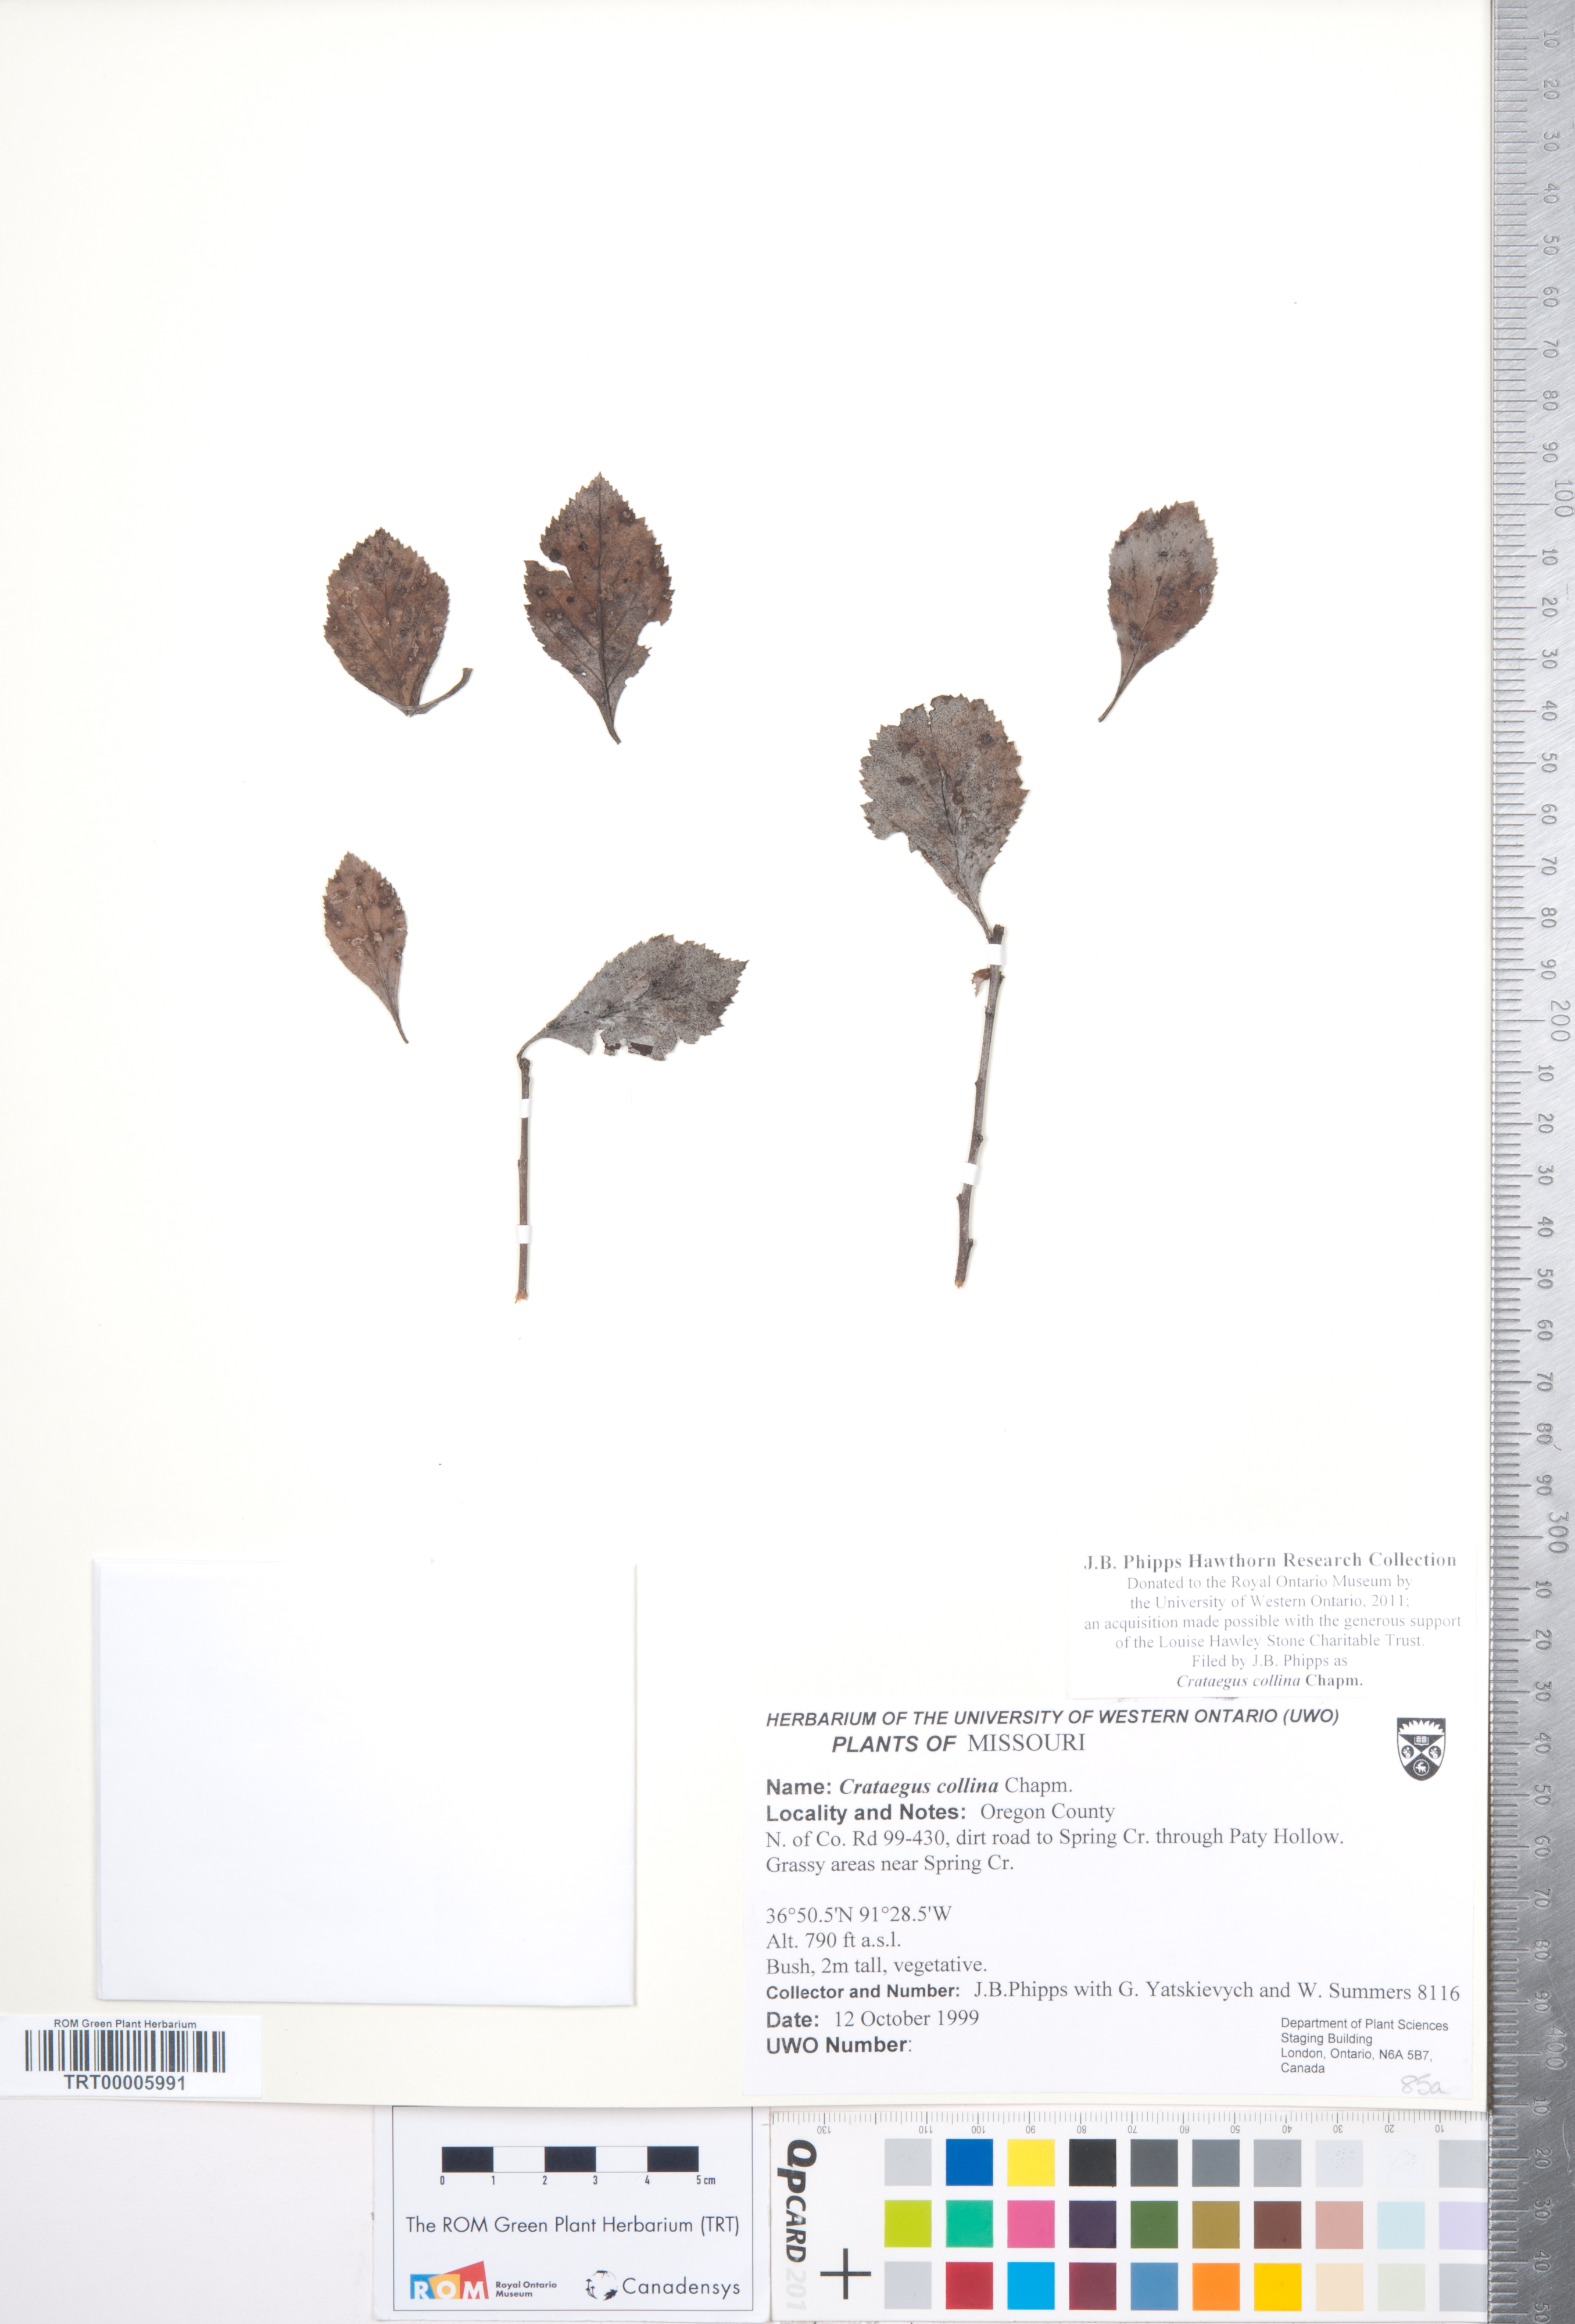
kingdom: Plantae
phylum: Tracheophyta
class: Magnoliopsida
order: Rosales
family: Rosaceae
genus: Crataegus
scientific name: Crataegus collina
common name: Hillside hawthorn
